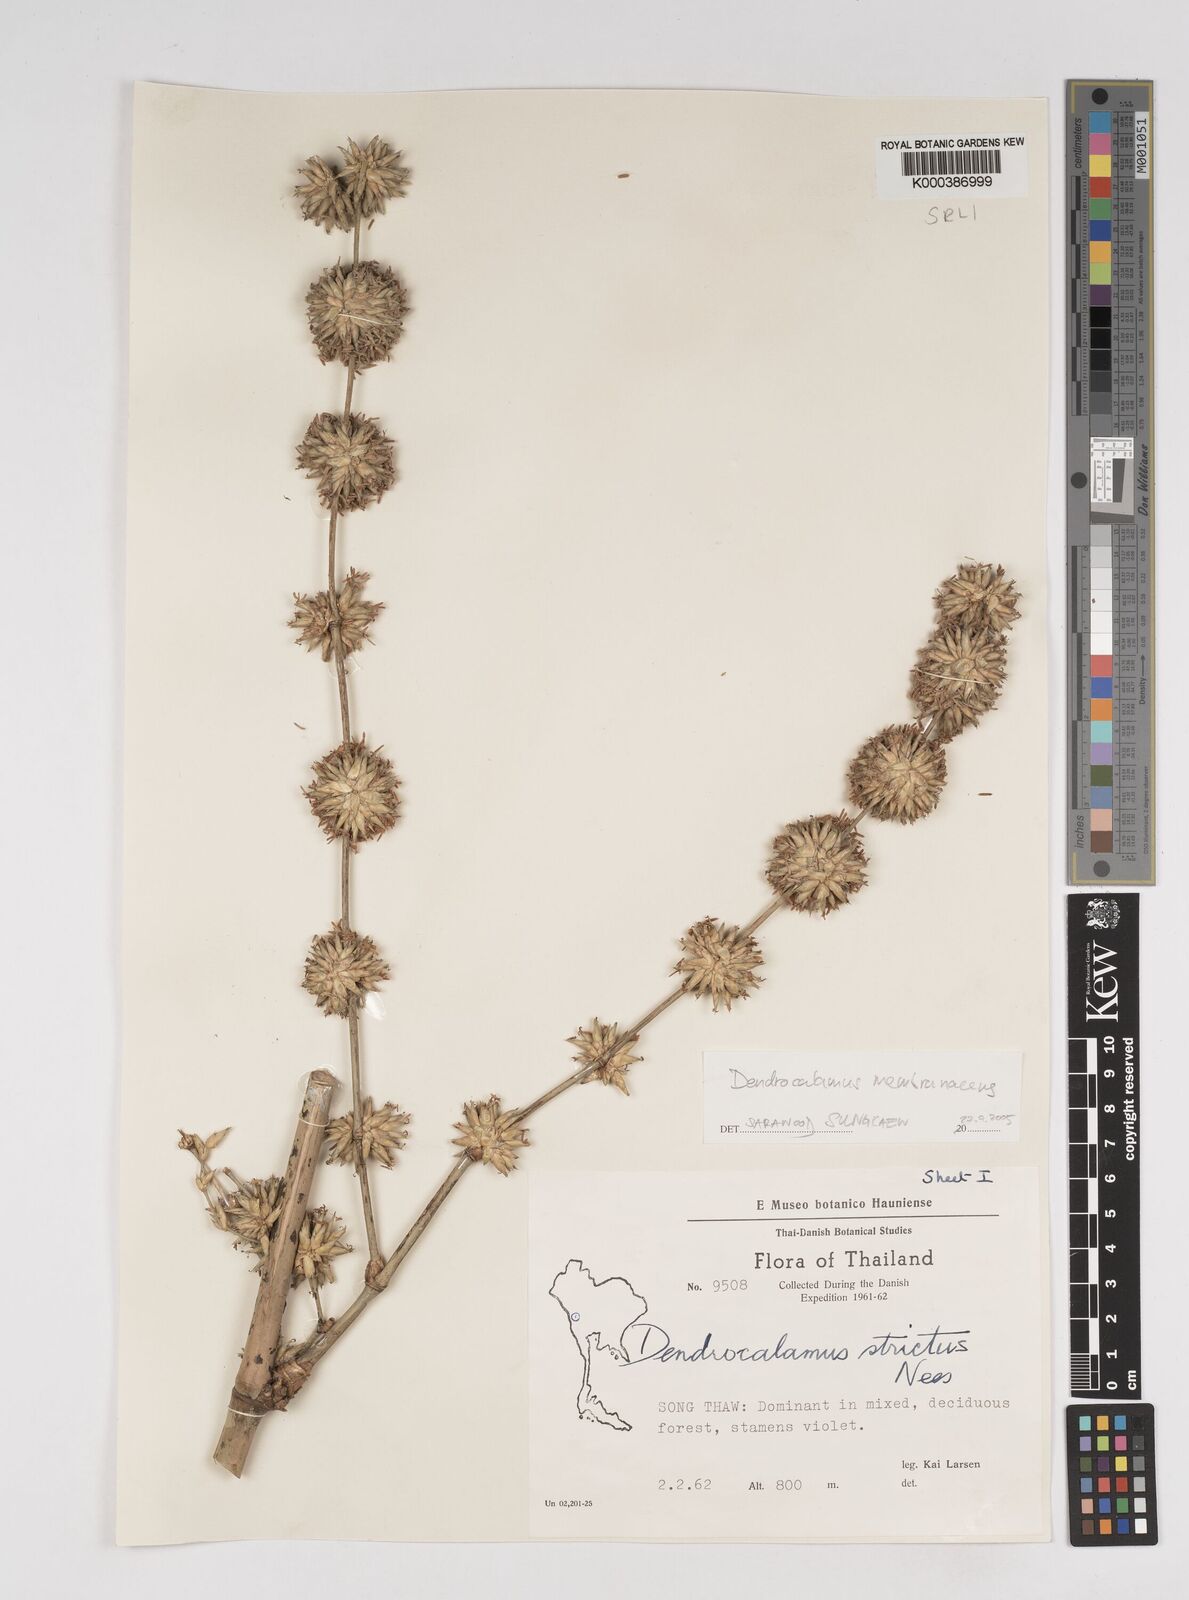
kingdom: Plantae
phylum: Tracheophyta
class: Liliopsida
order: Poales
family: Poaceae
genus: Dendrocalamus
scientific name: Dendrocalamus membranaceus
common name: White bamboo
